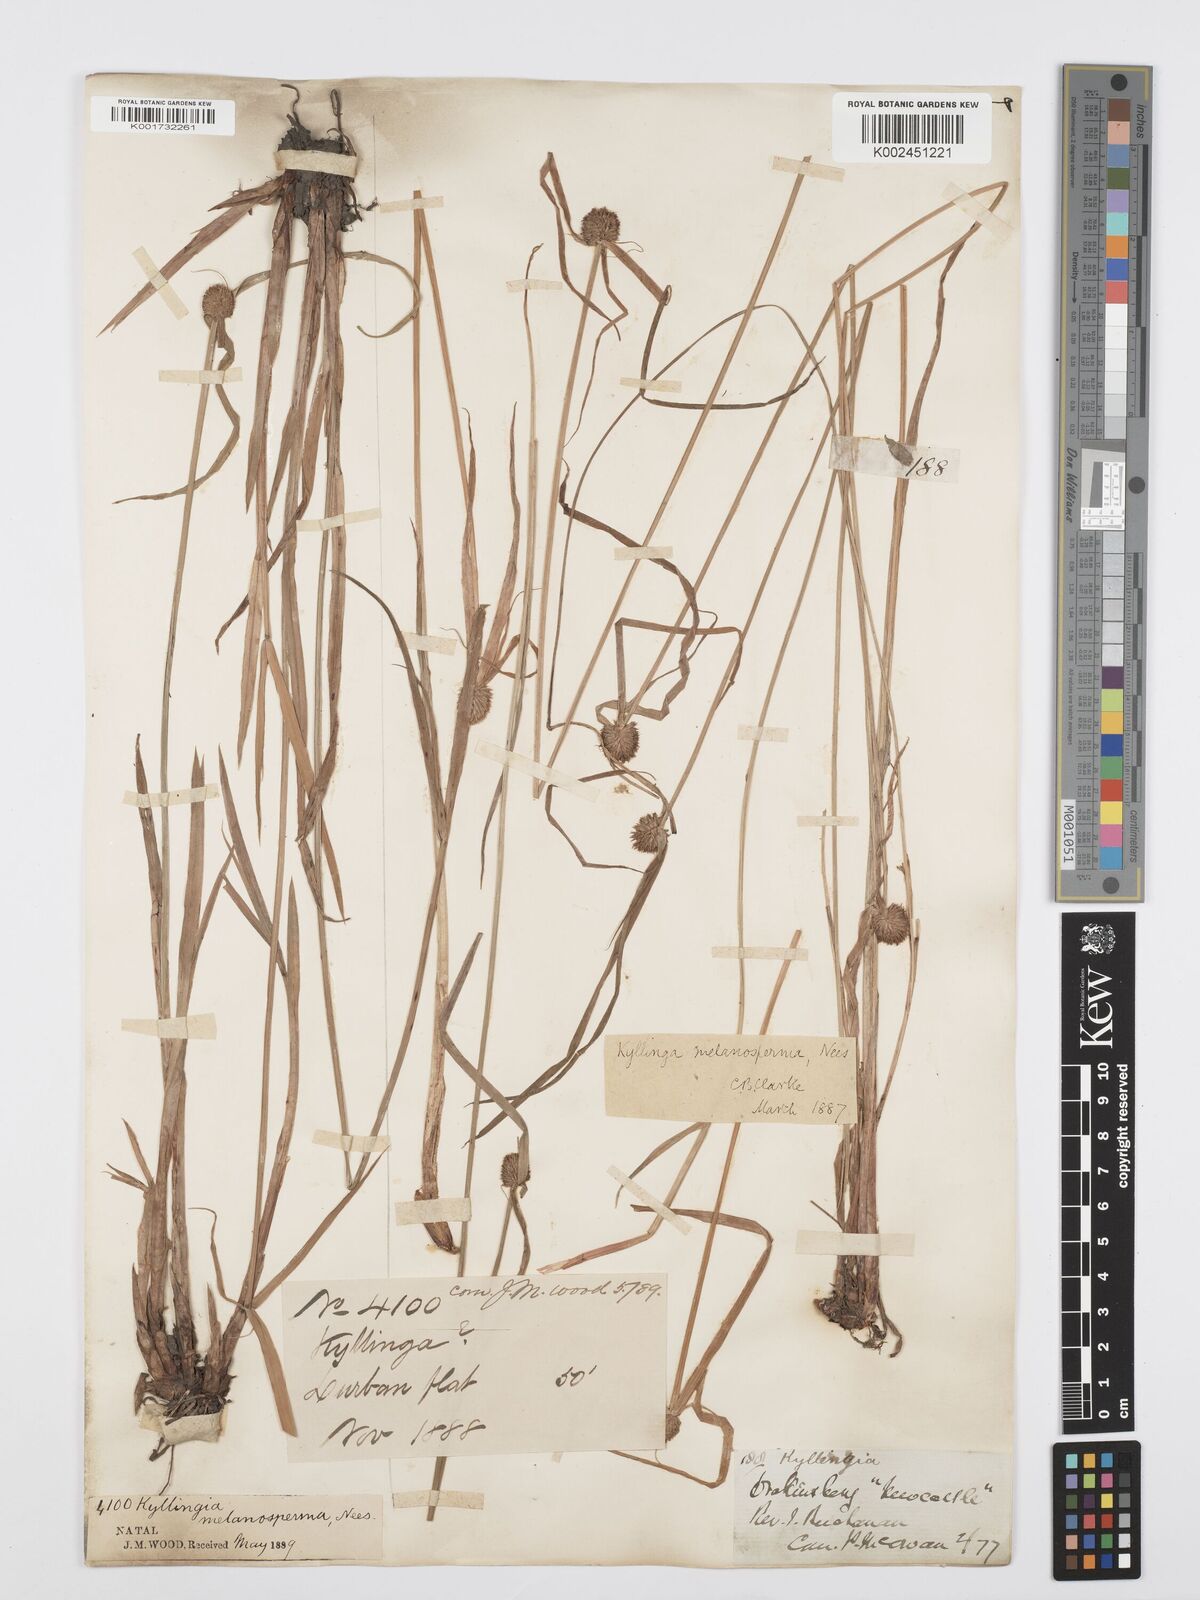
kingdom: Plantae
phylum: Tracheophyta
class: Liliopsida
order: Poales
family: Cyperaceae
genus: Cyperus
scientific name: Cyperus melanospermus
